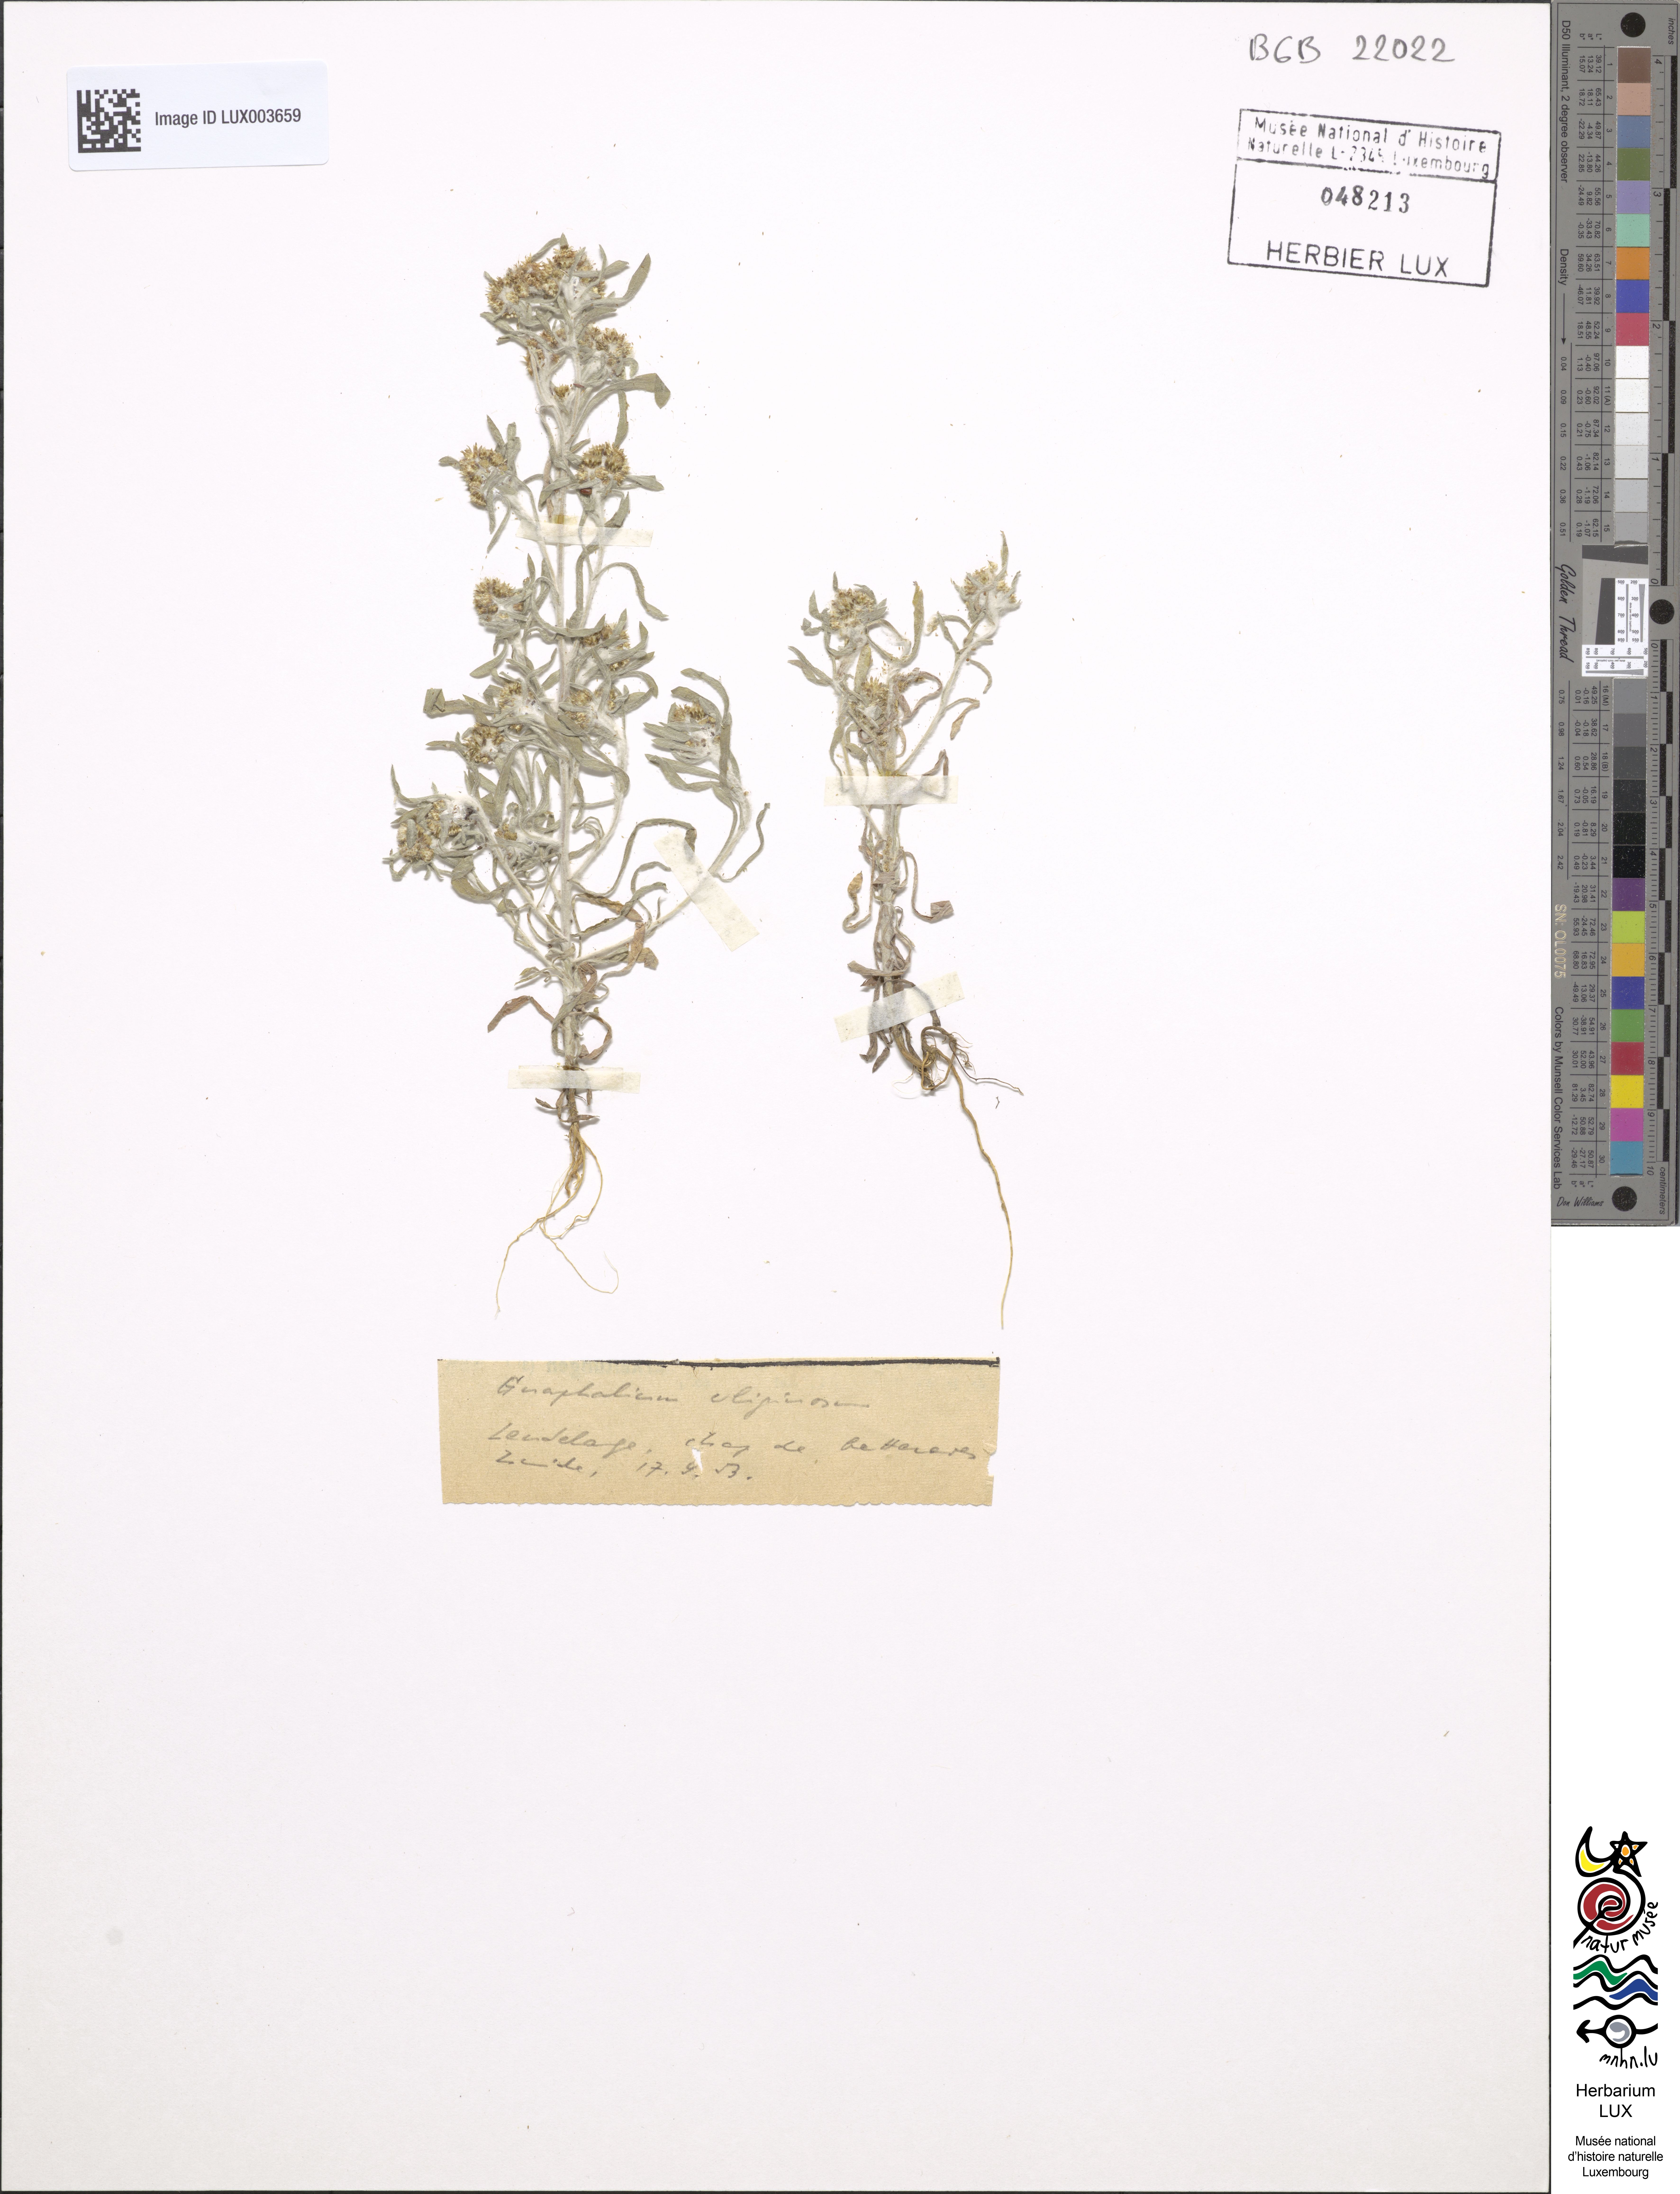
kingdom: Plantae
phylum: Tracheophyta
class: Magnoliopsida
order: Asterales
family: Asteraceae
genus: Gnaphalium
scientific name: Gnaphalium uliginosum
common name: Marsh cudweed
